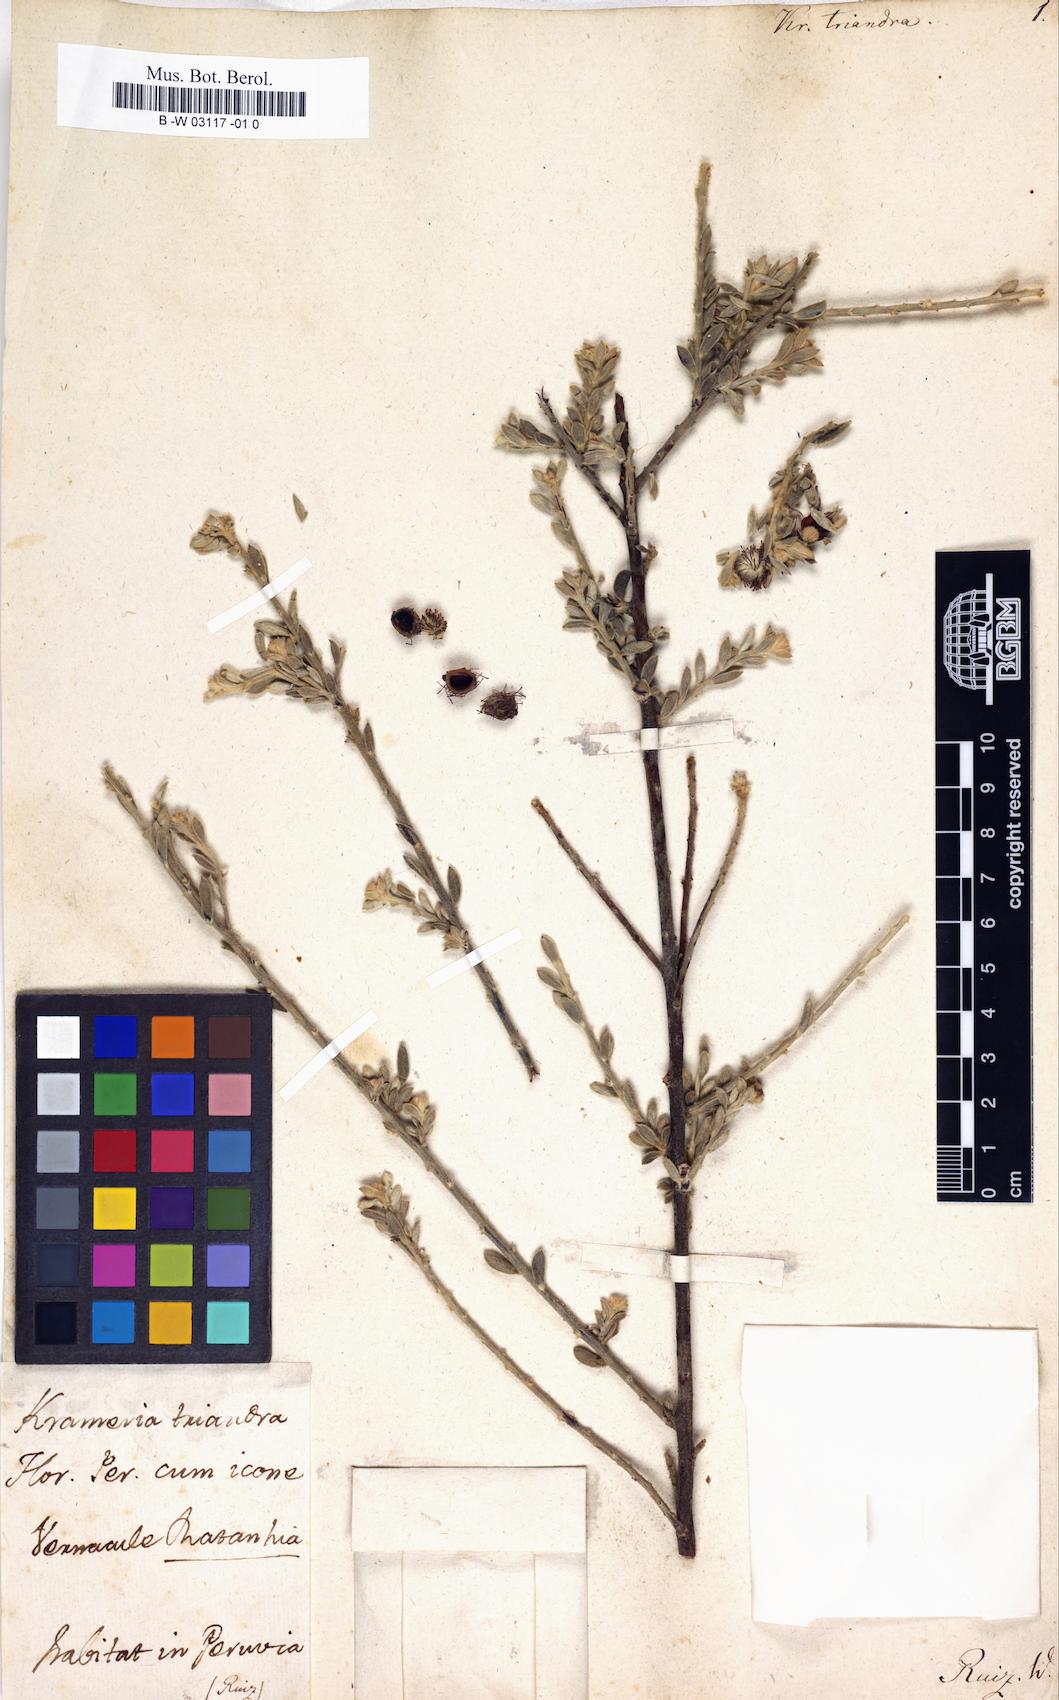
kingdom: Plantae
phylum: Tracheophyta
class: Magnoliopsida
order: Zygophyllales
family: Krameriaceae
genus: Krameria
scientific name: Krameria lappacea
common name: Rhatany
